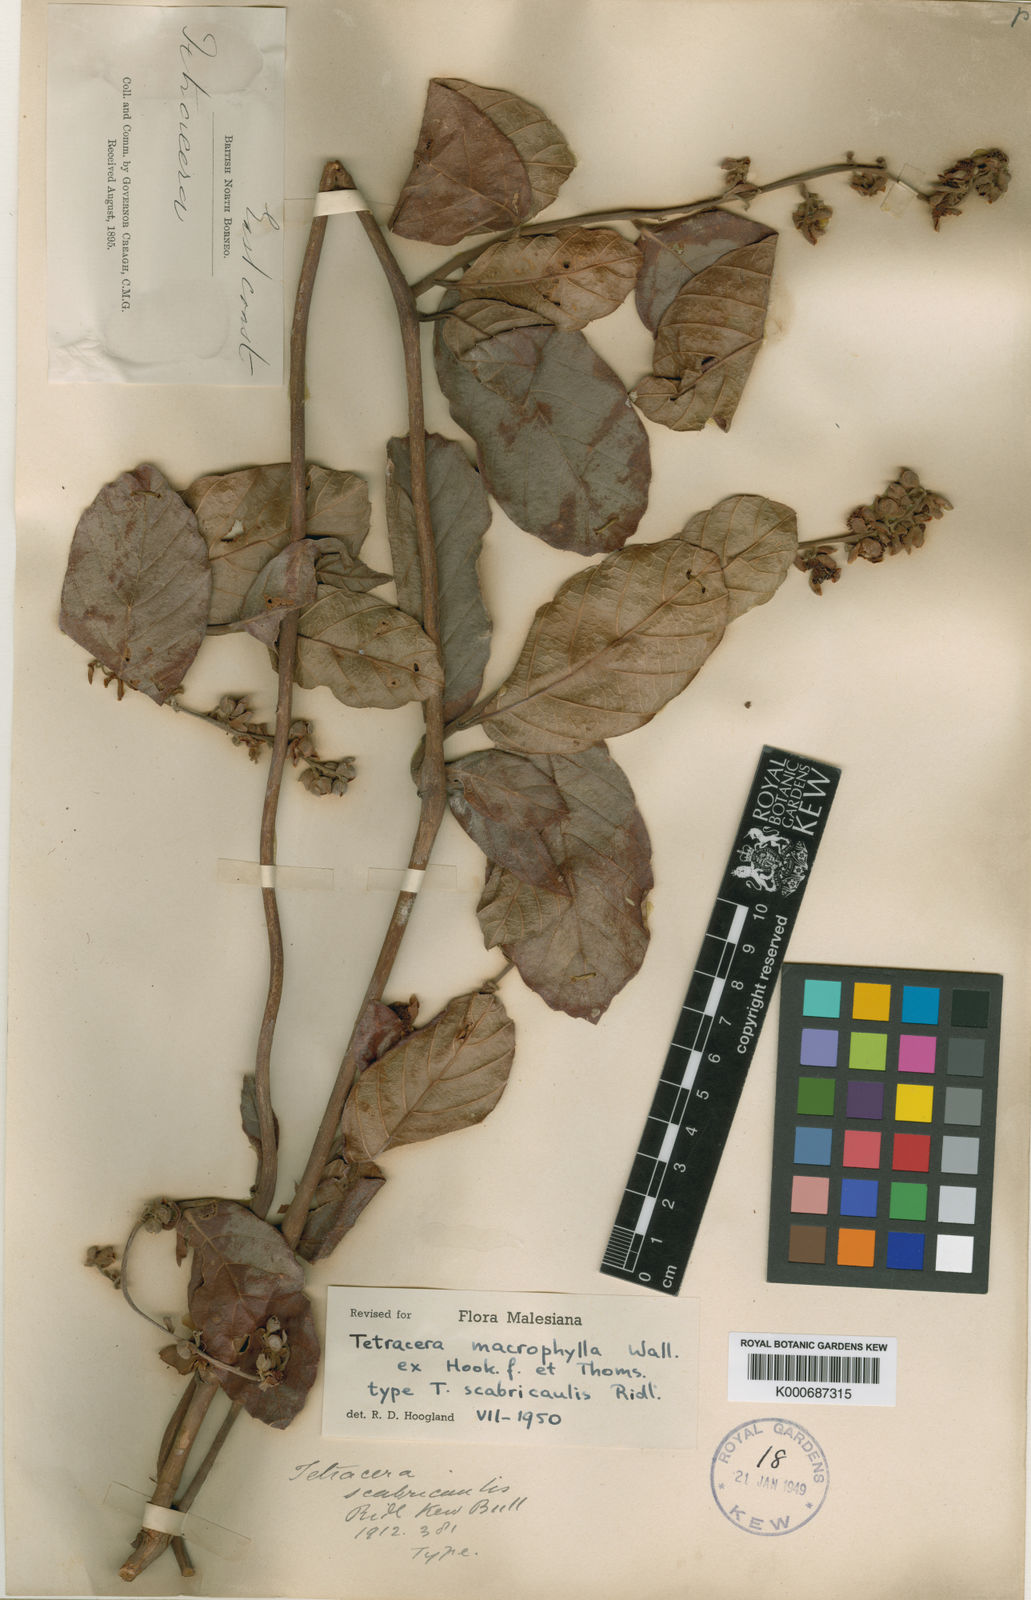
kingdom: Plantae
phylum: Tracheophyta
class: Magnoliopsida
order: Dilleniales
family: Dilleniaceae
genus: Tetracera
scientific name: Tetracera macrophylla
